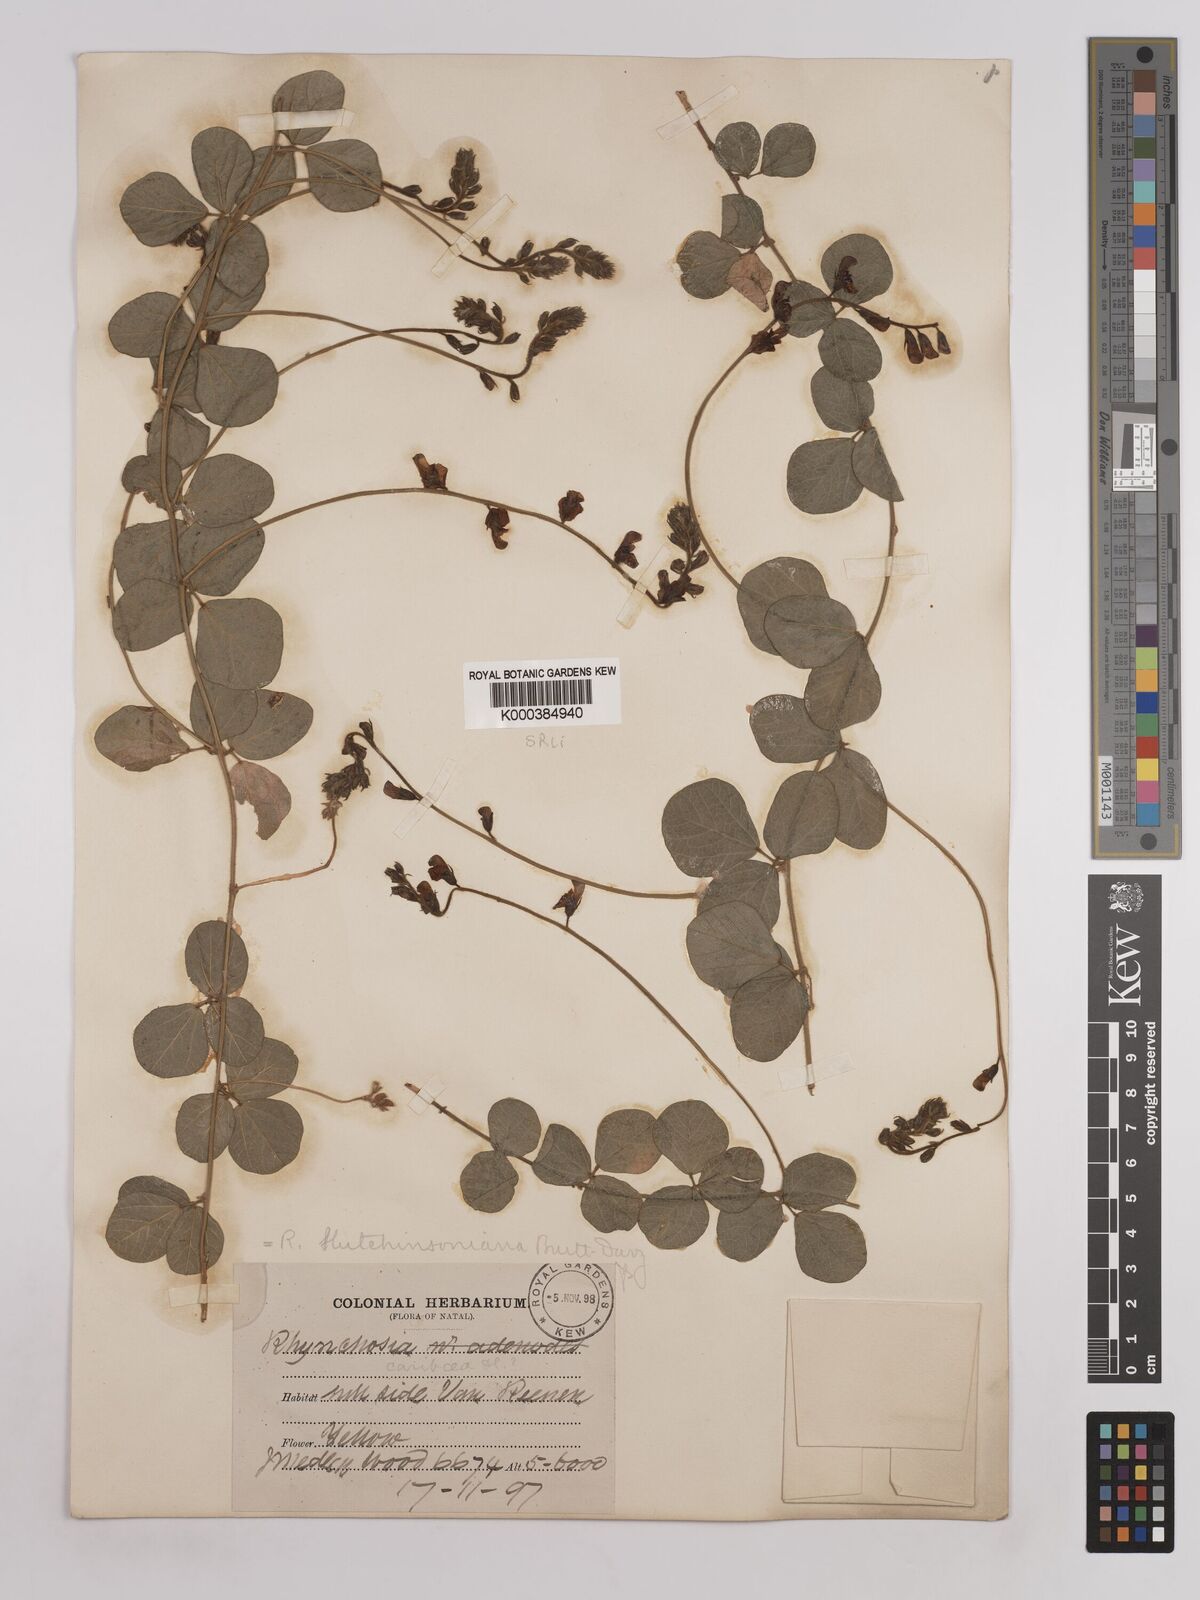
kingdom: Plantae
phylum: Tracheophyta
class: Magnoliopsida
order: Fabales
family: Fabaceae
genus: Rhynchosia
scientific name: Rhynchosia pentheri
